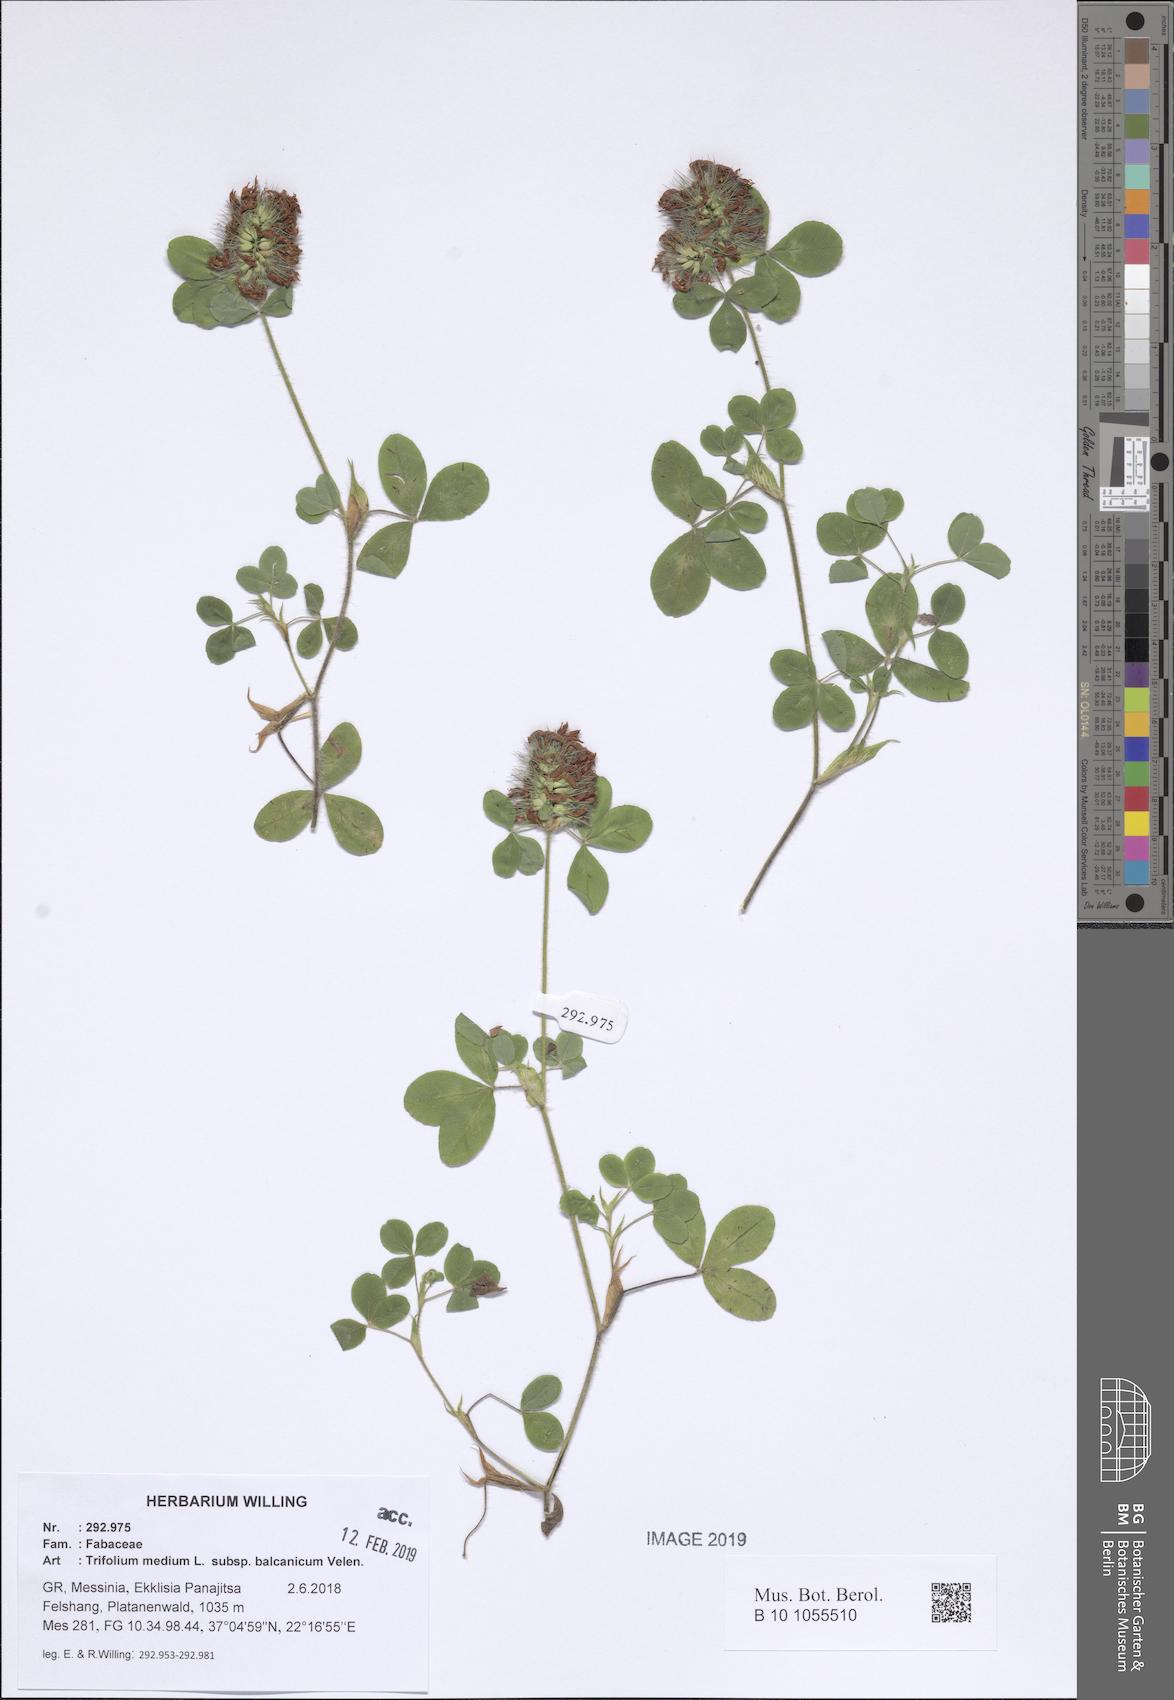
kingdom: Plantae
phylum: Tracheophyta
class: Magnoliopsida
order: Fabales
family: Fabaceae
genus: Trifolium
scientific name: Trifolium pseudomedium
